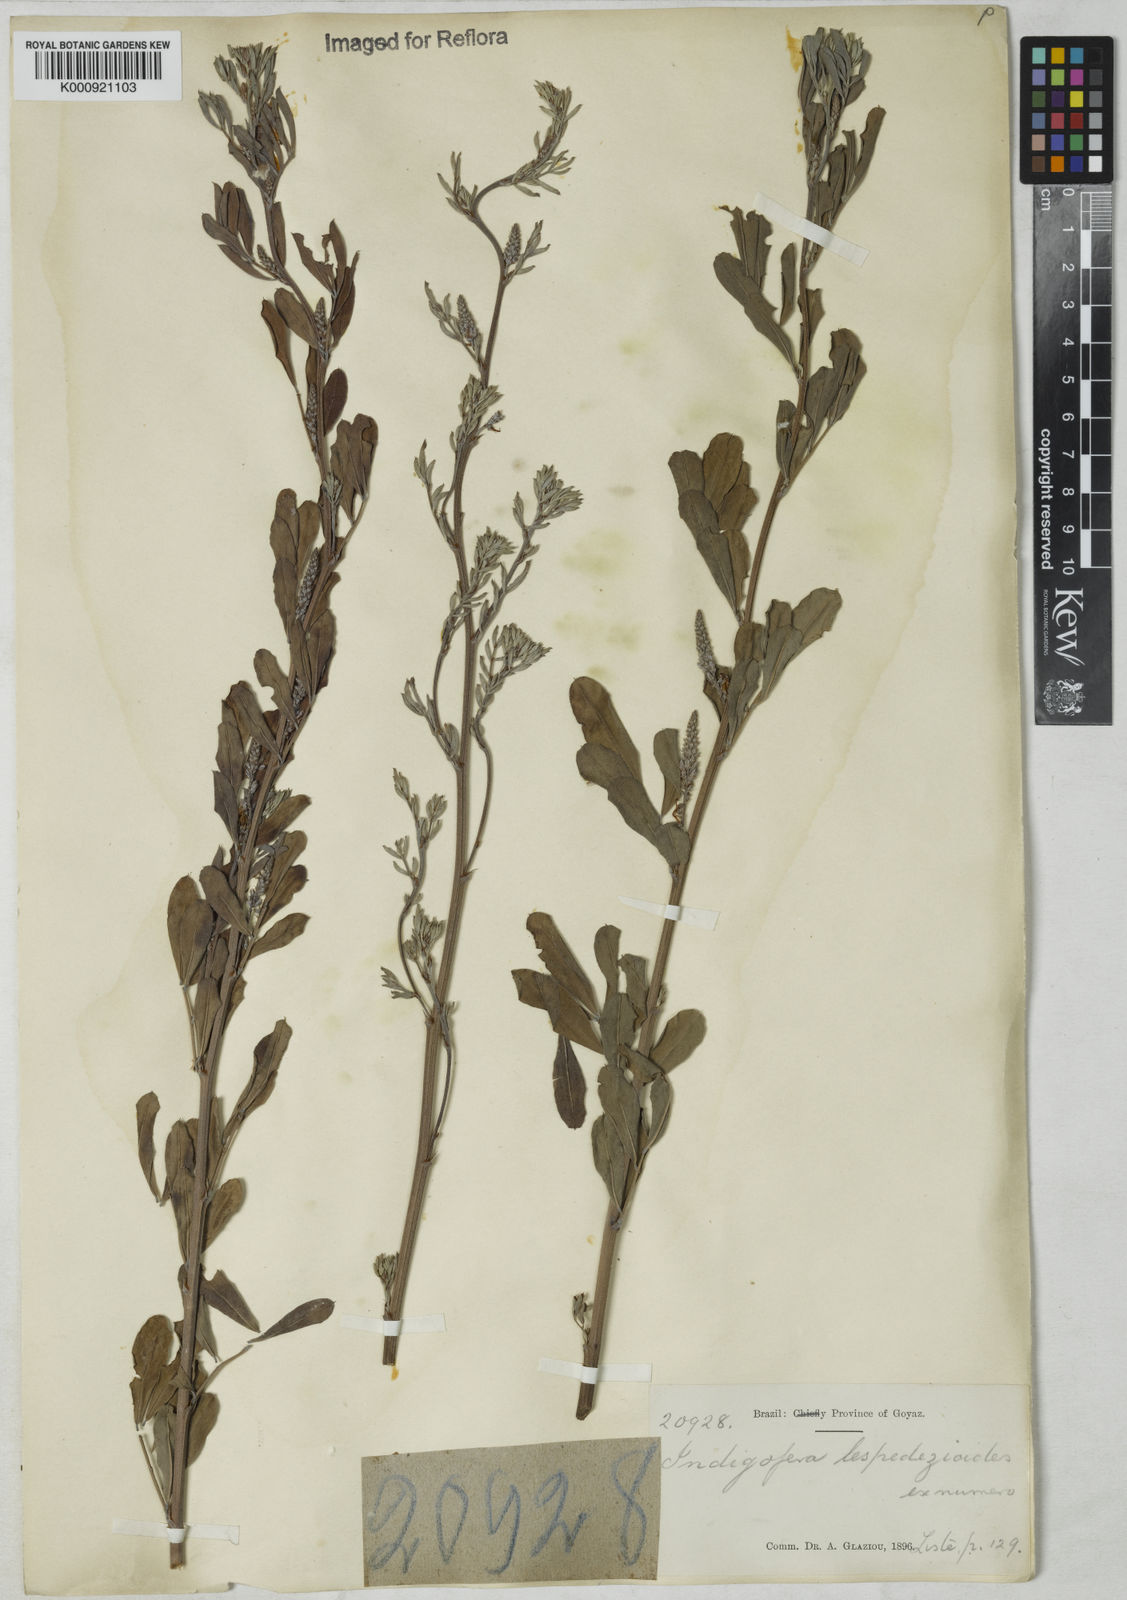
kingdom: Plantae
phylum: Tracheophyta
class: Magnoliopsida
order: Fabales
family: Fabaceae
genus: Indigofera
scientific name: Indigofera lespedezioides
